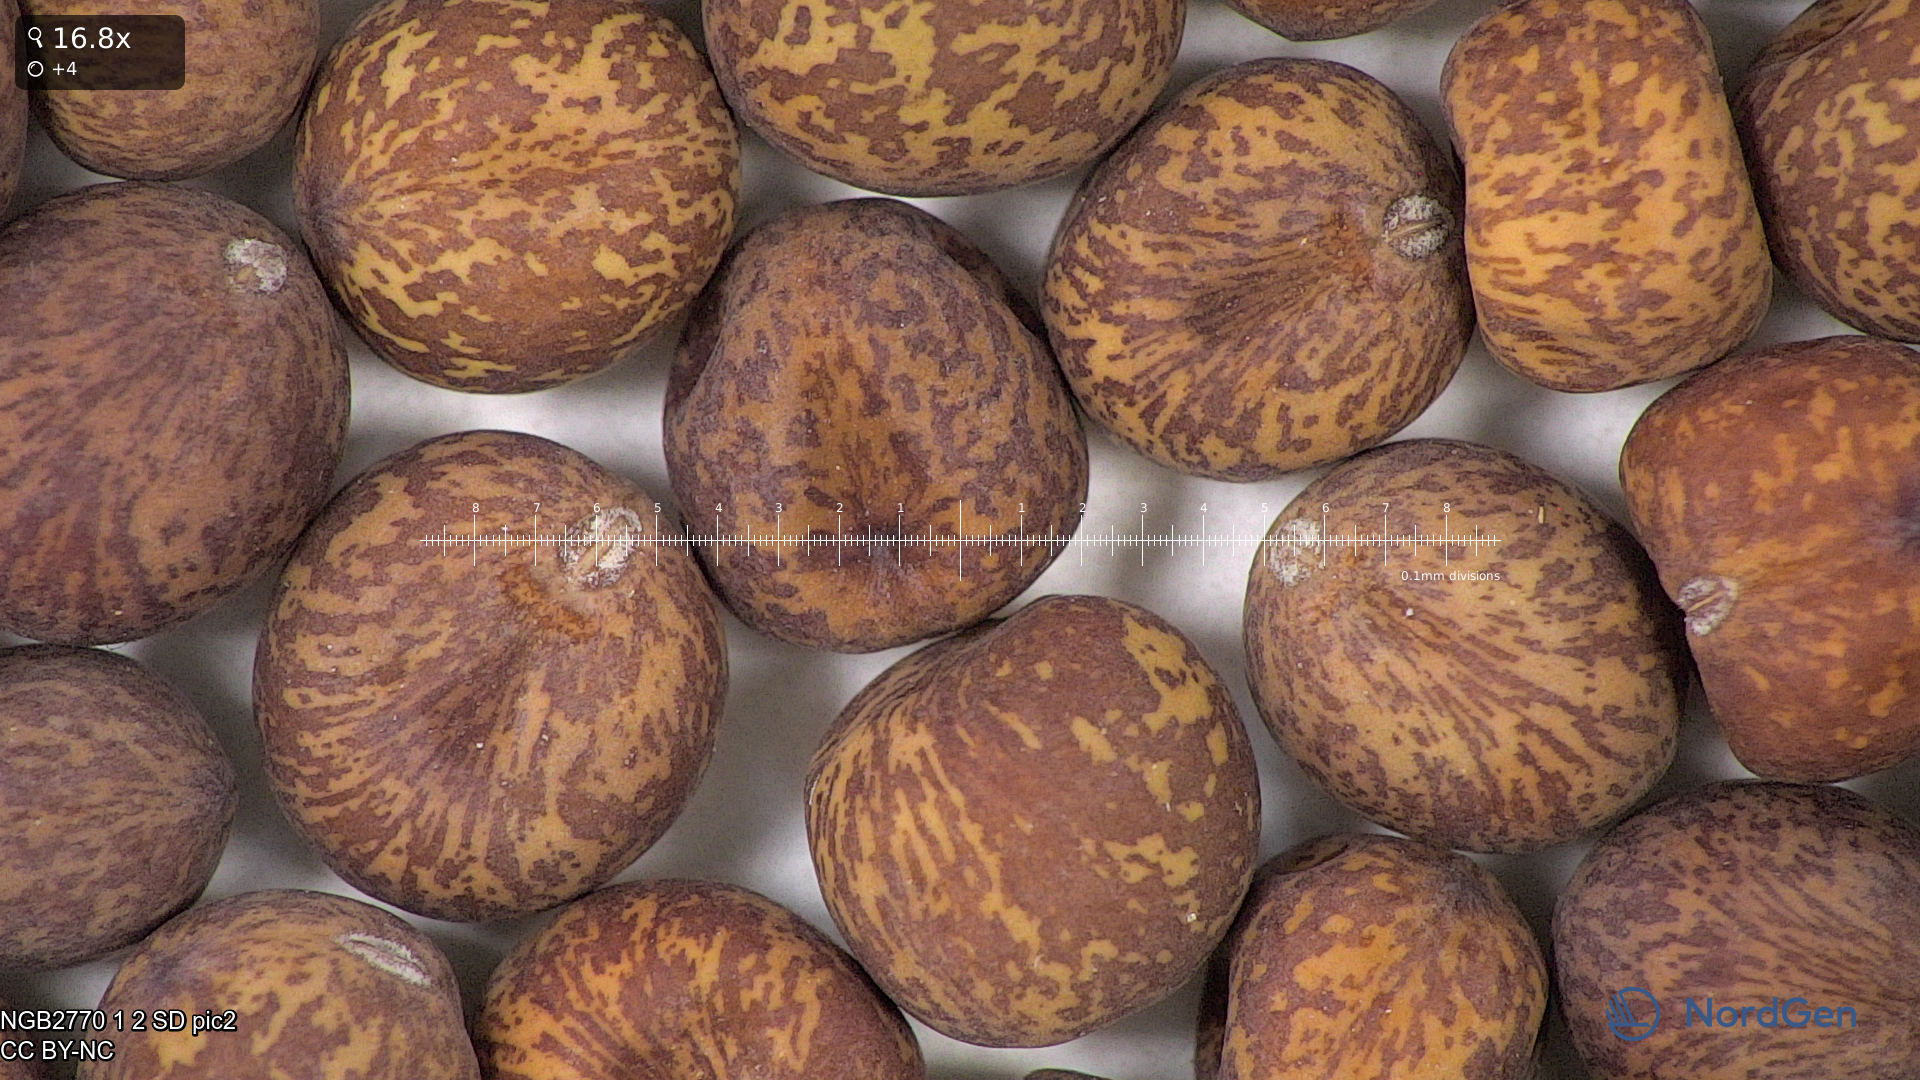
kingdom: Plantae
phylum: Tracheophyta
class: Magnoliopsida
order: Fabales
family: Fabaceae
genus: Lathyrus
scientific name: Lathyrus oleraceus
